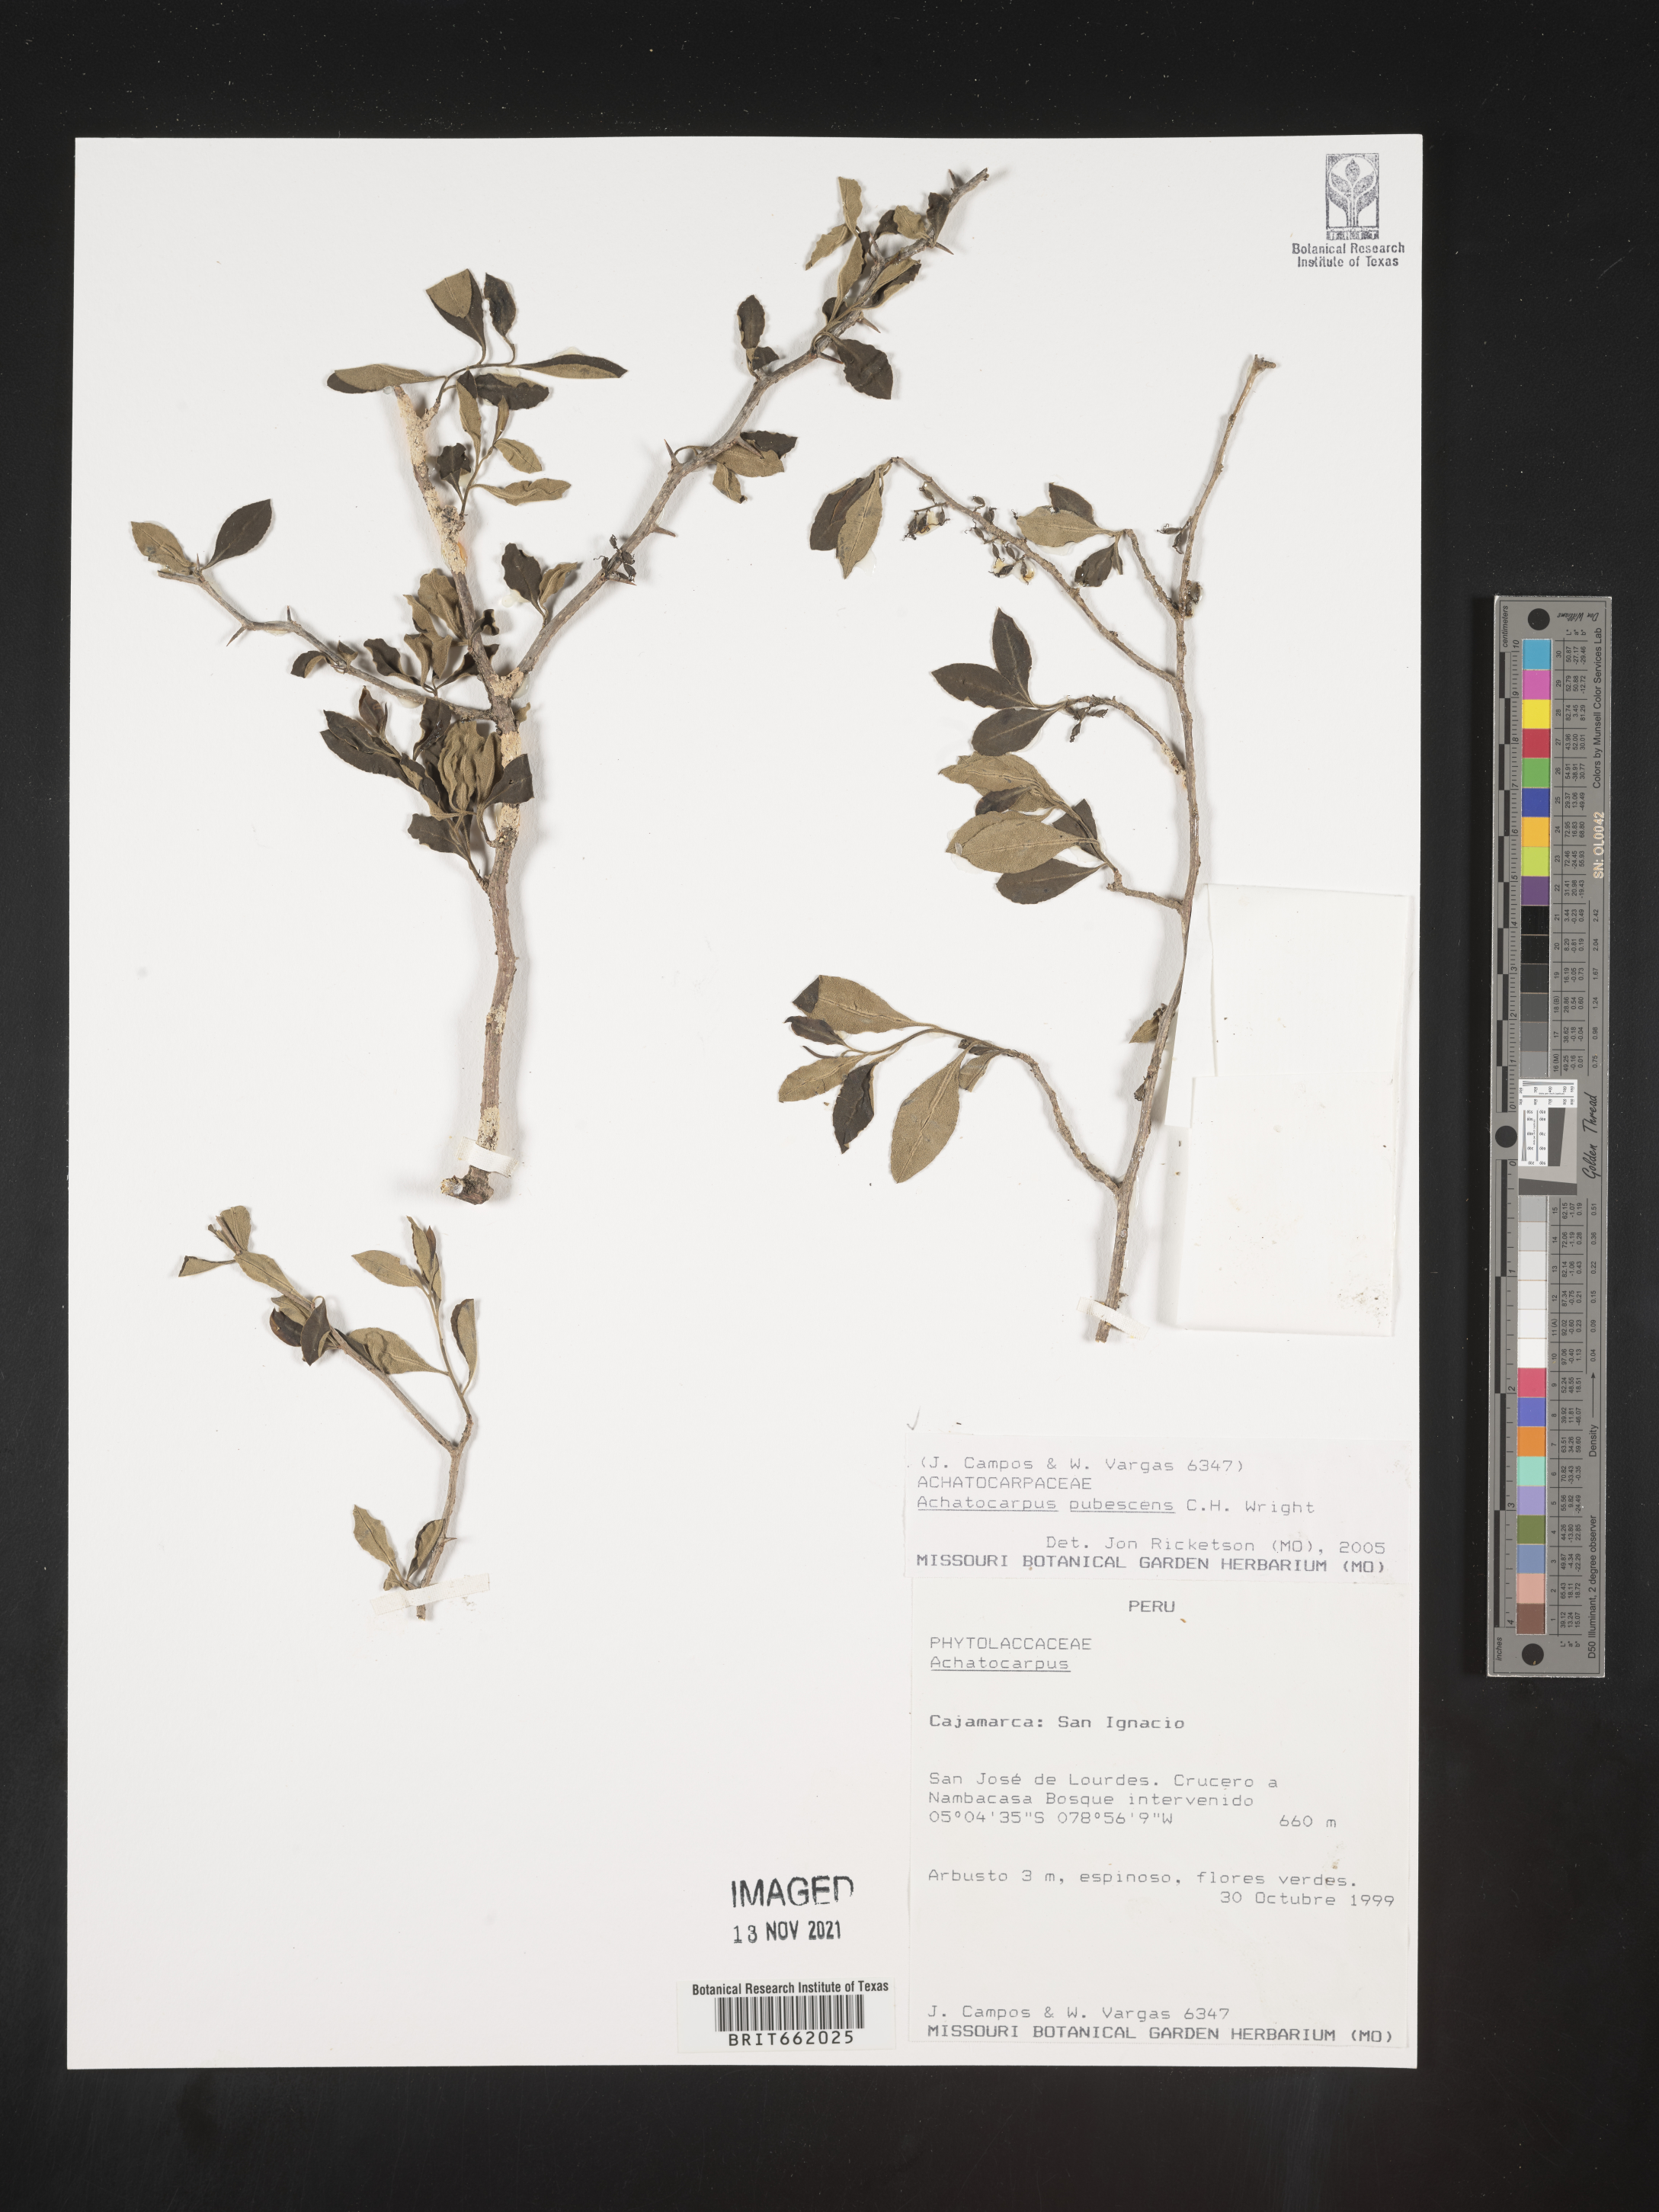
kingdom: Plantae
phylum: Tracheophyta
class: Magnoliopsida
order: Caryophyllales
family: Achatocarpaceae
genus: Achatocarpus
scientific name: Achatocarpus
